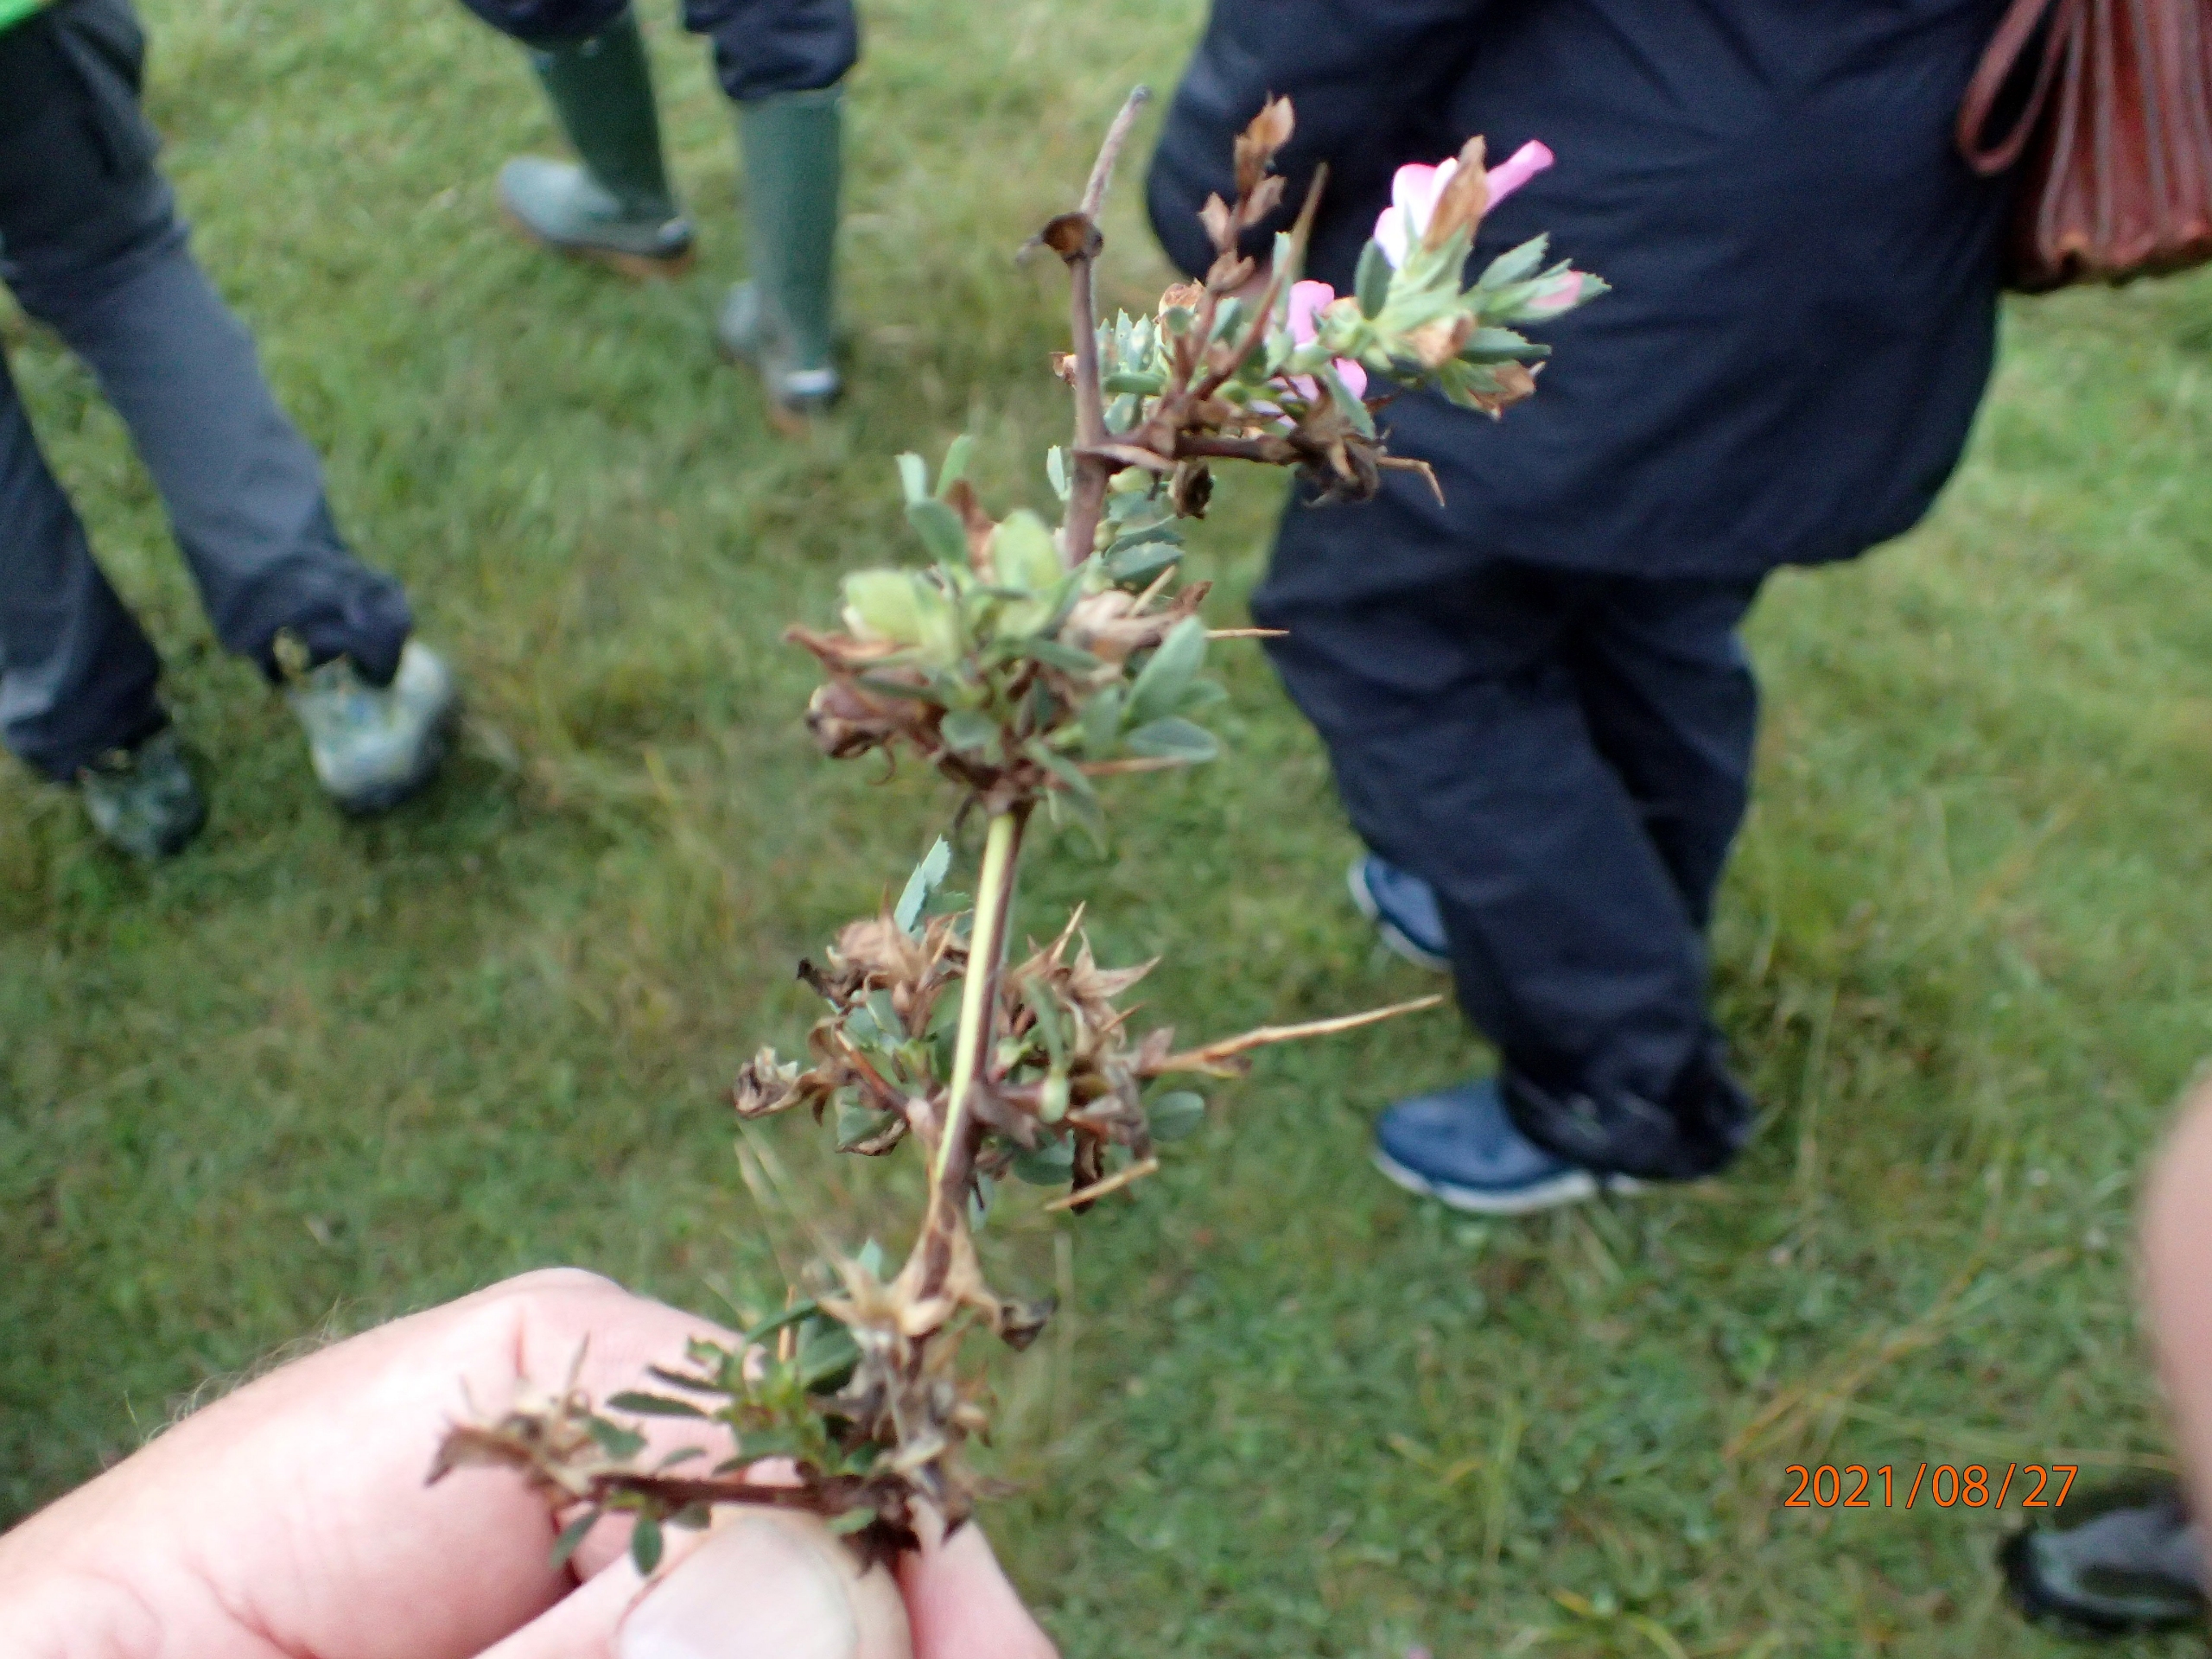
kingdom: Plantae
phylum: Tracheophyta
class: Magnoliopsida
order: Fabales
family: Fabaceae
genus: Ononis
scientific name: Ononis spinosa
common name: Strand-krageklo
